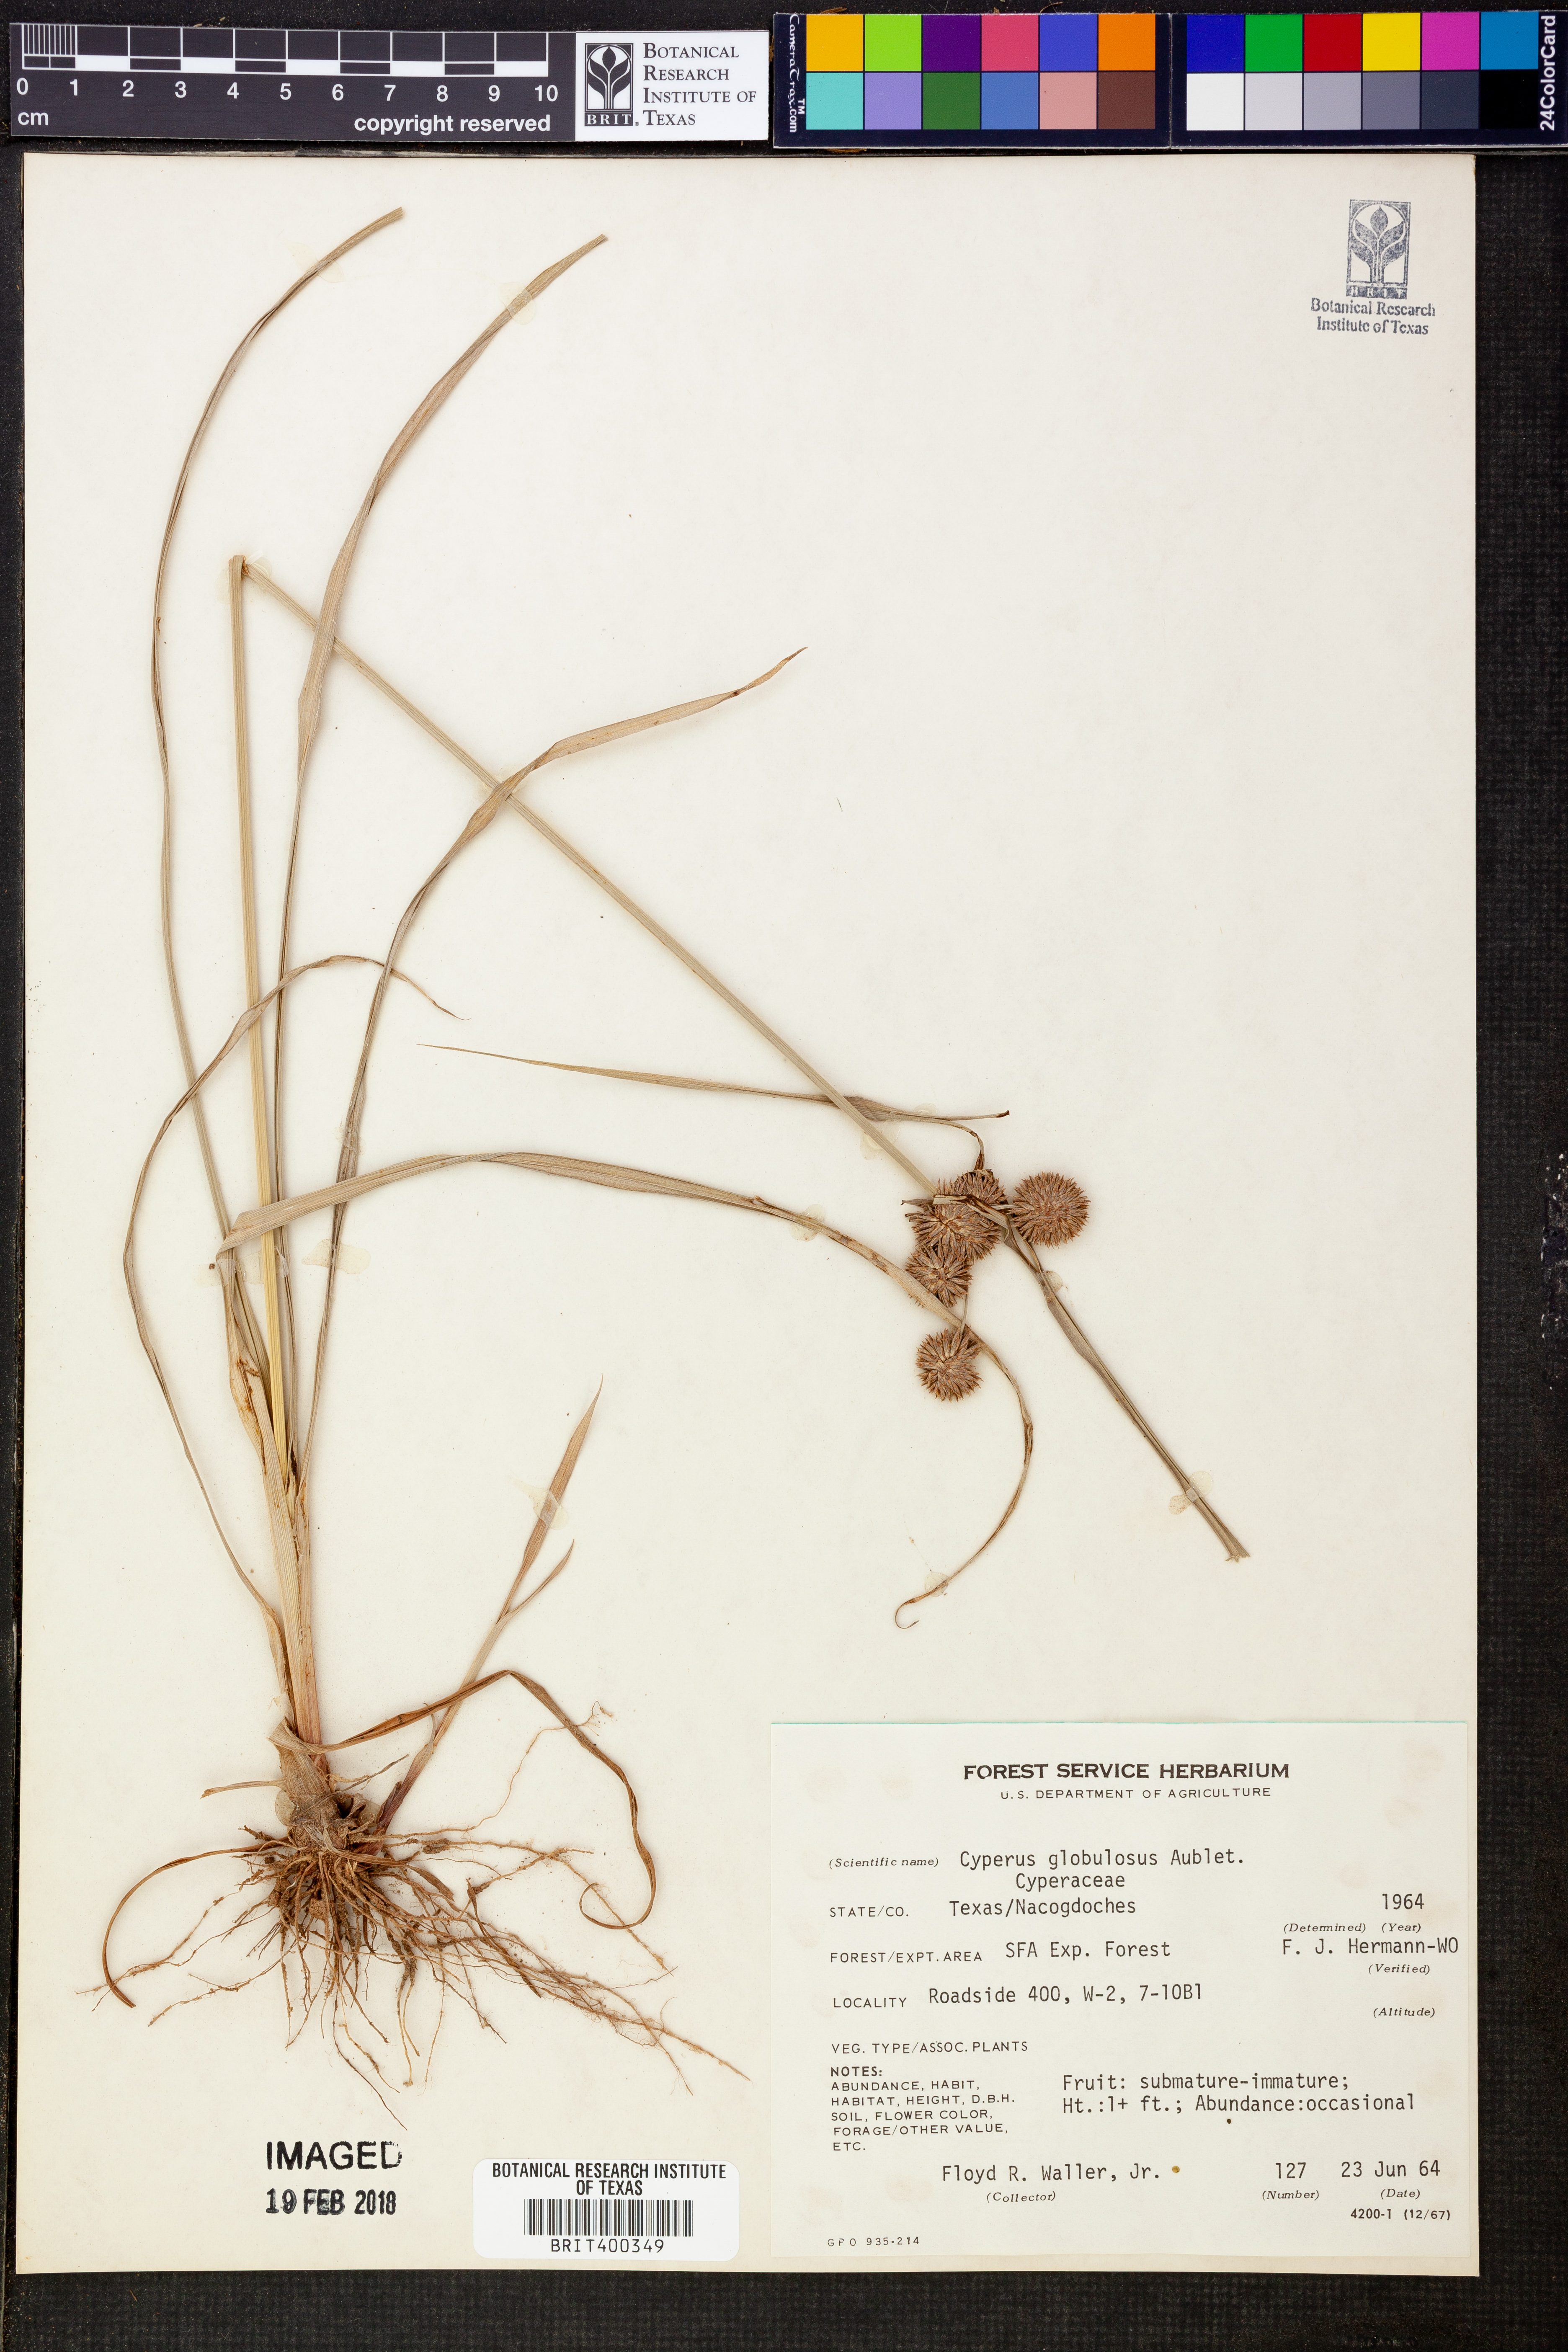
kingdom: Plantae
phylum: Tracheophyta
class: Liliopsida
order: Poales
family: Cyperaceae
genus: Cyperus
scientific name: Cyperus luzulae
